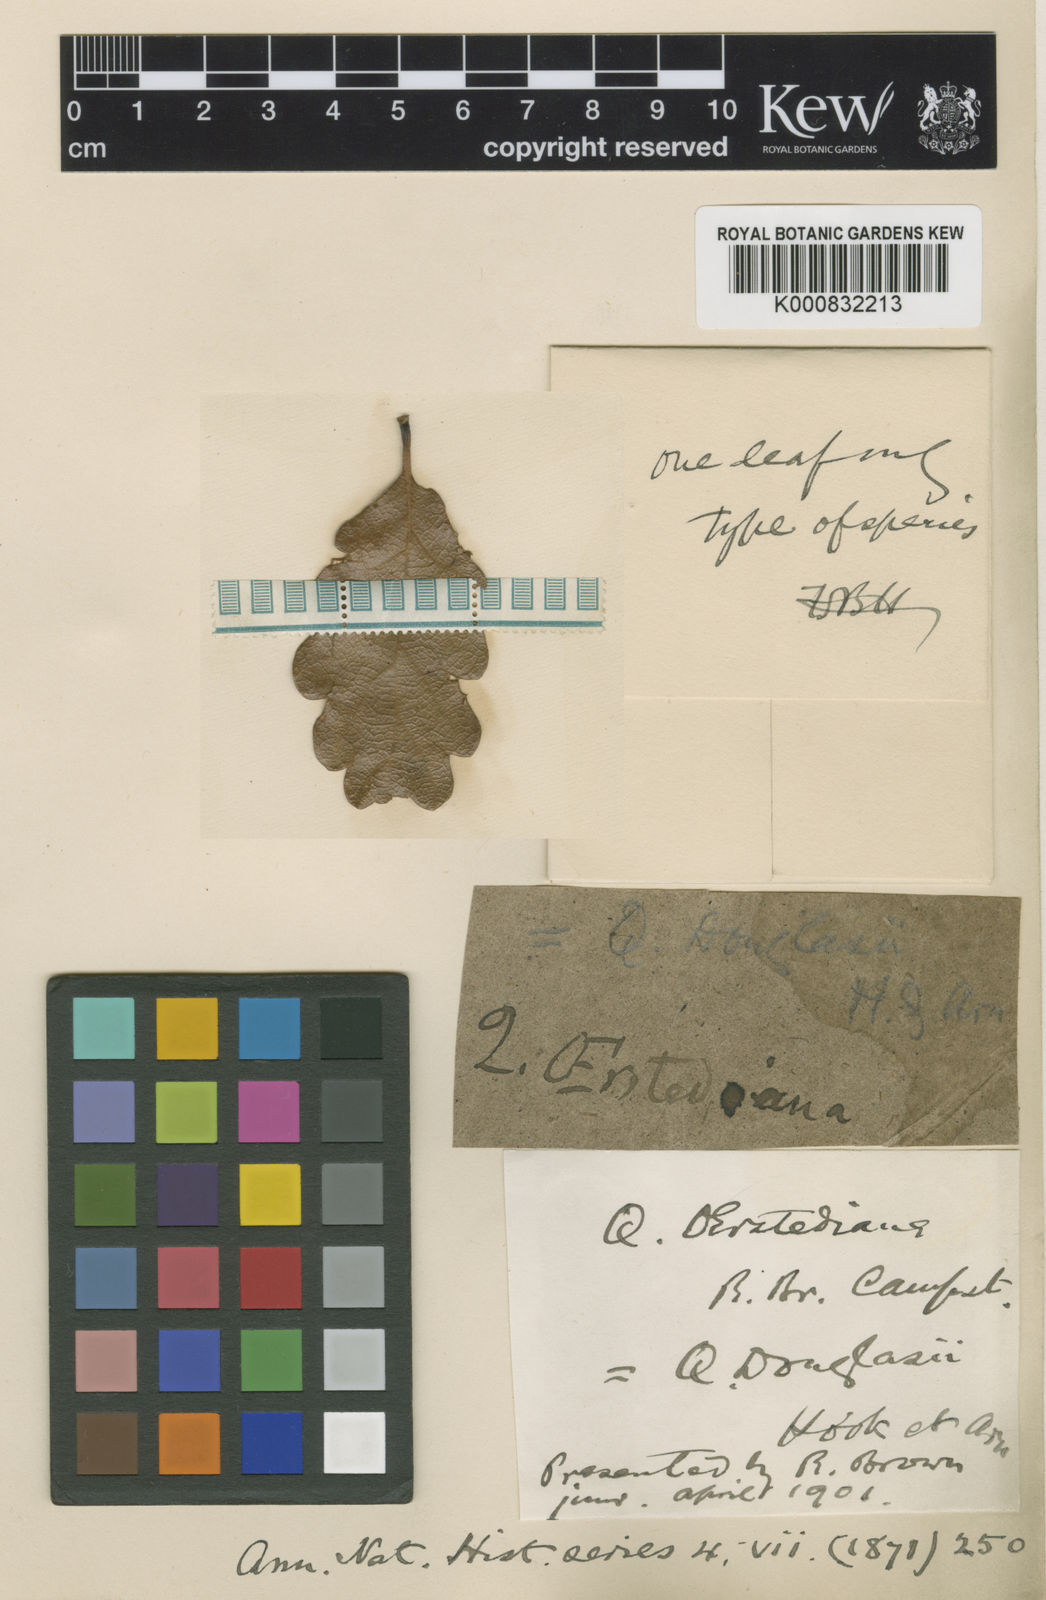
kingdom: Plantae
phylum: Tracheophyta
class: Magnoliopsida
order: Fagales
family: Fagaceae
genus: Quercus
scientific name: Quercus garryana
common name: Garry oak
